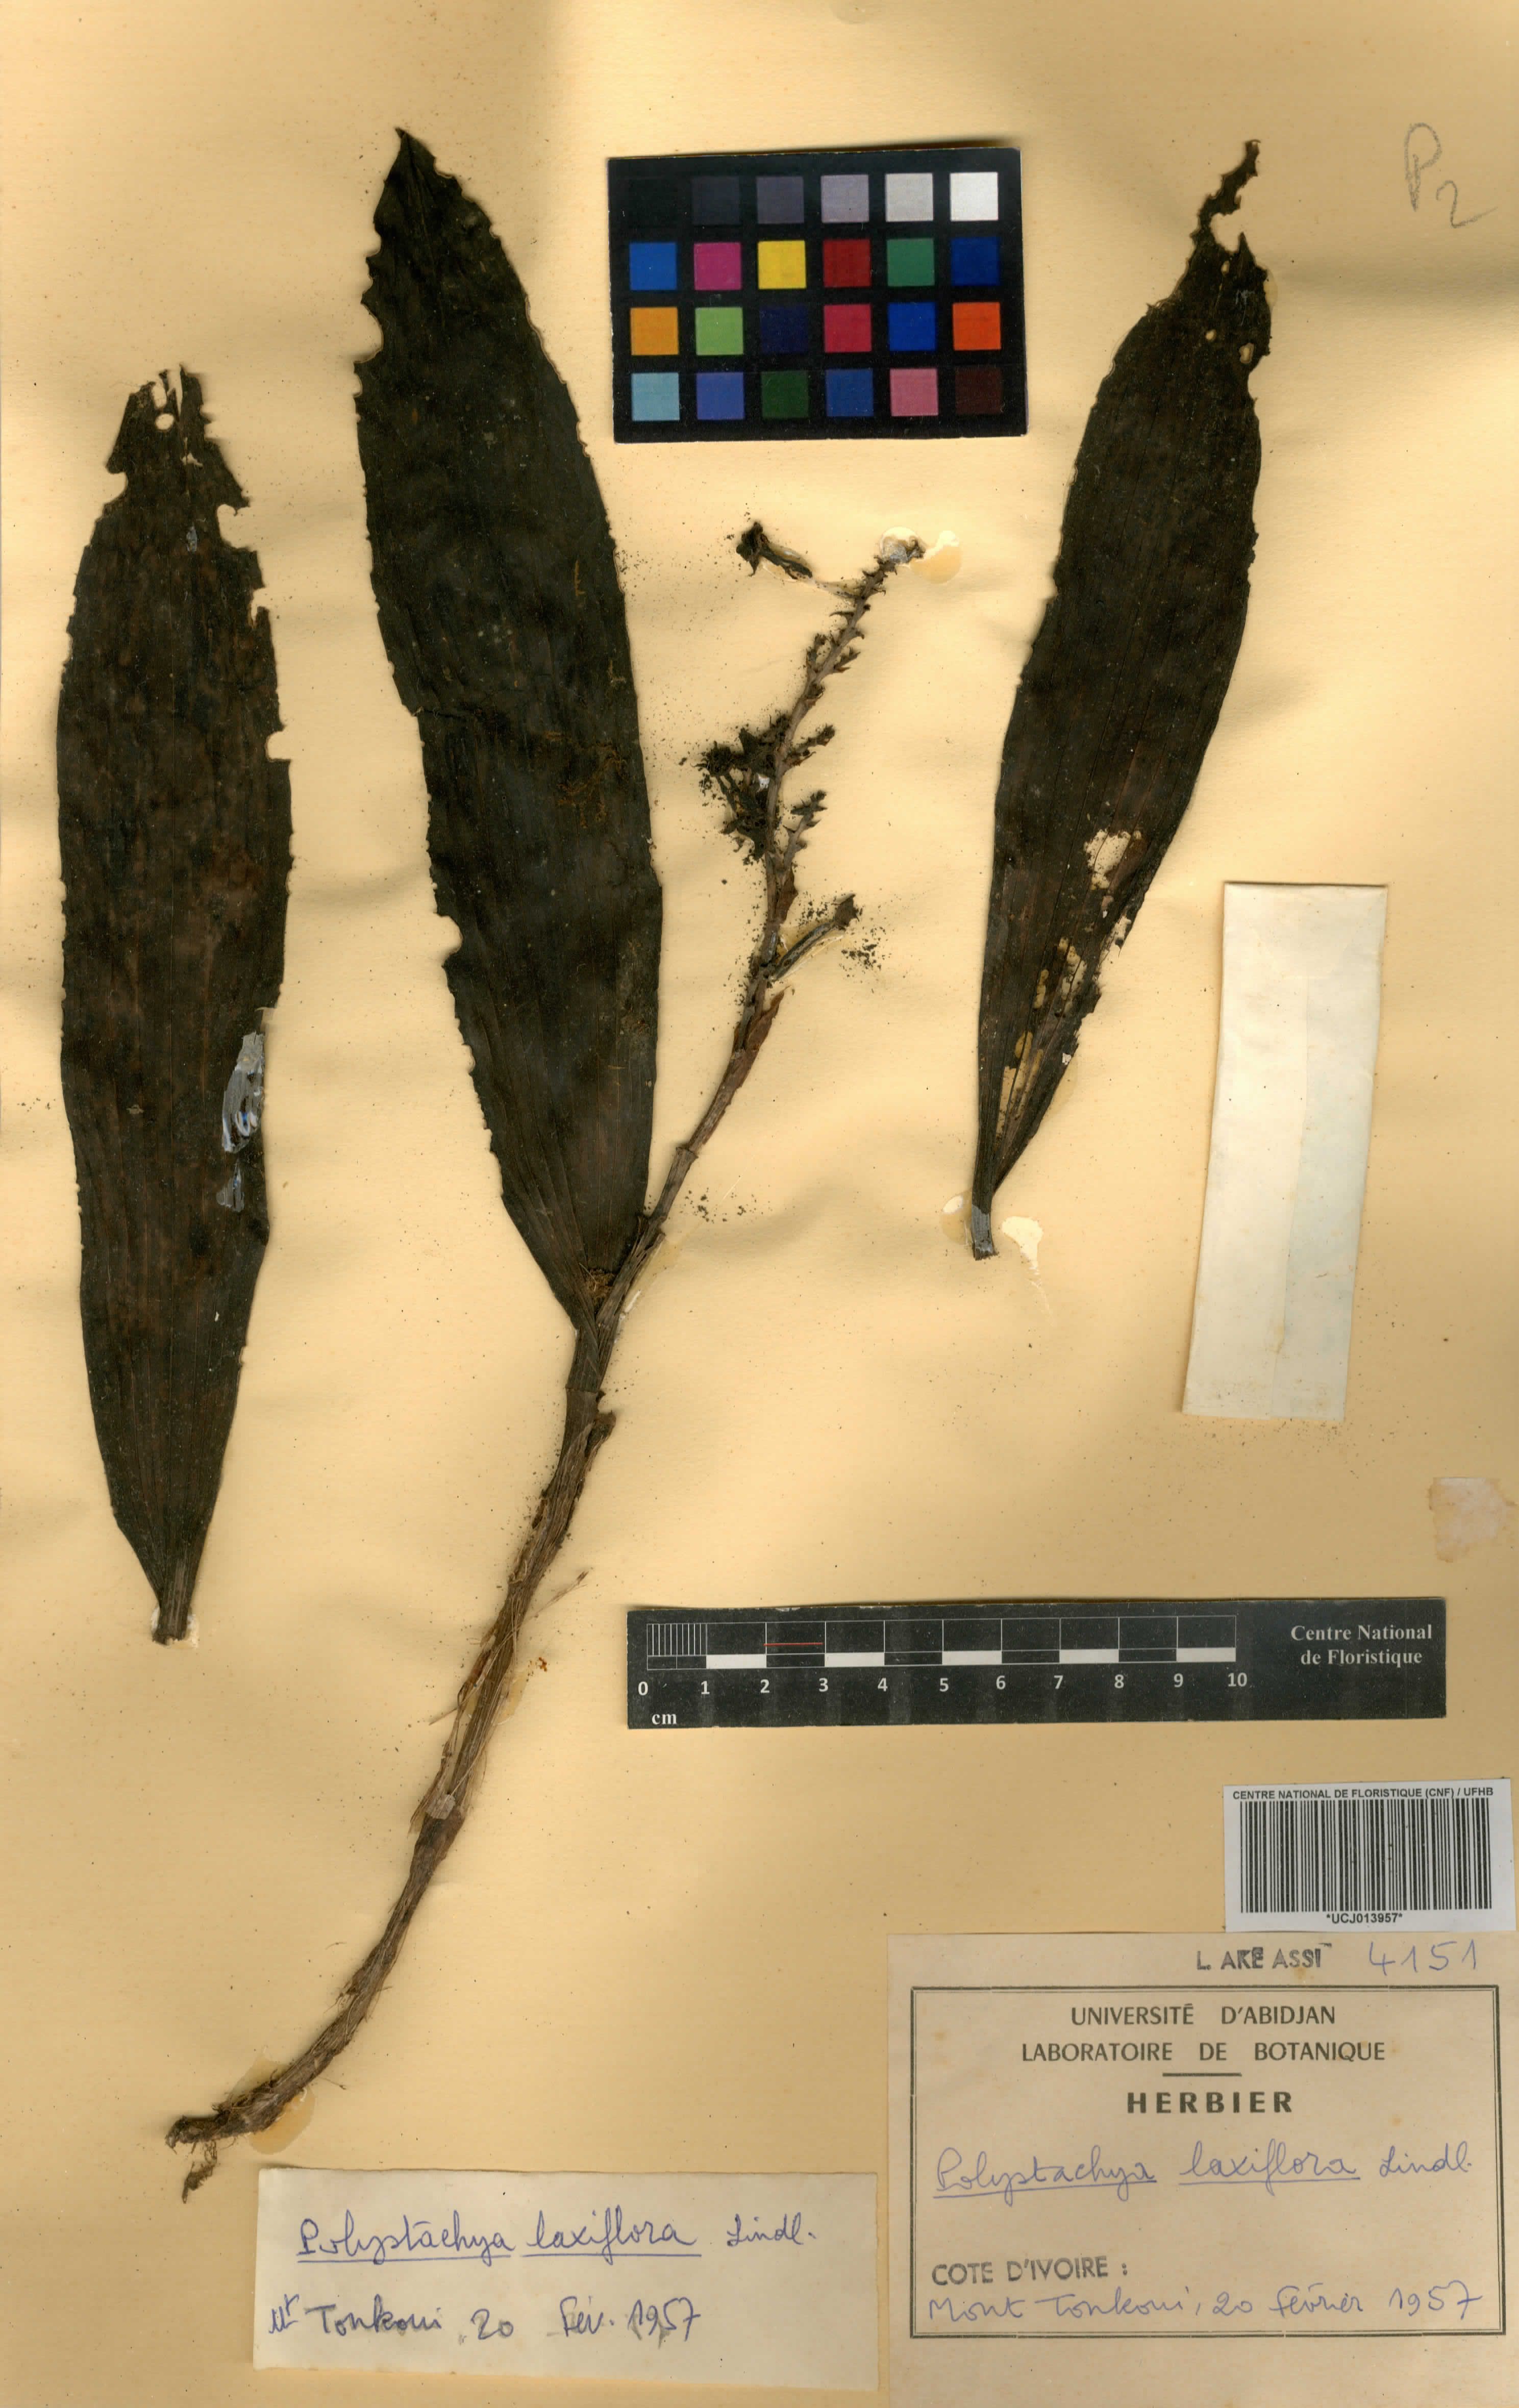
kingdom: Plantae
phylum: Tracheophyta
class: Liliopsida
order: Asparagales
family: Orchidaceae
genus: Polystachya
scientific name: Polystachya laxiflora
